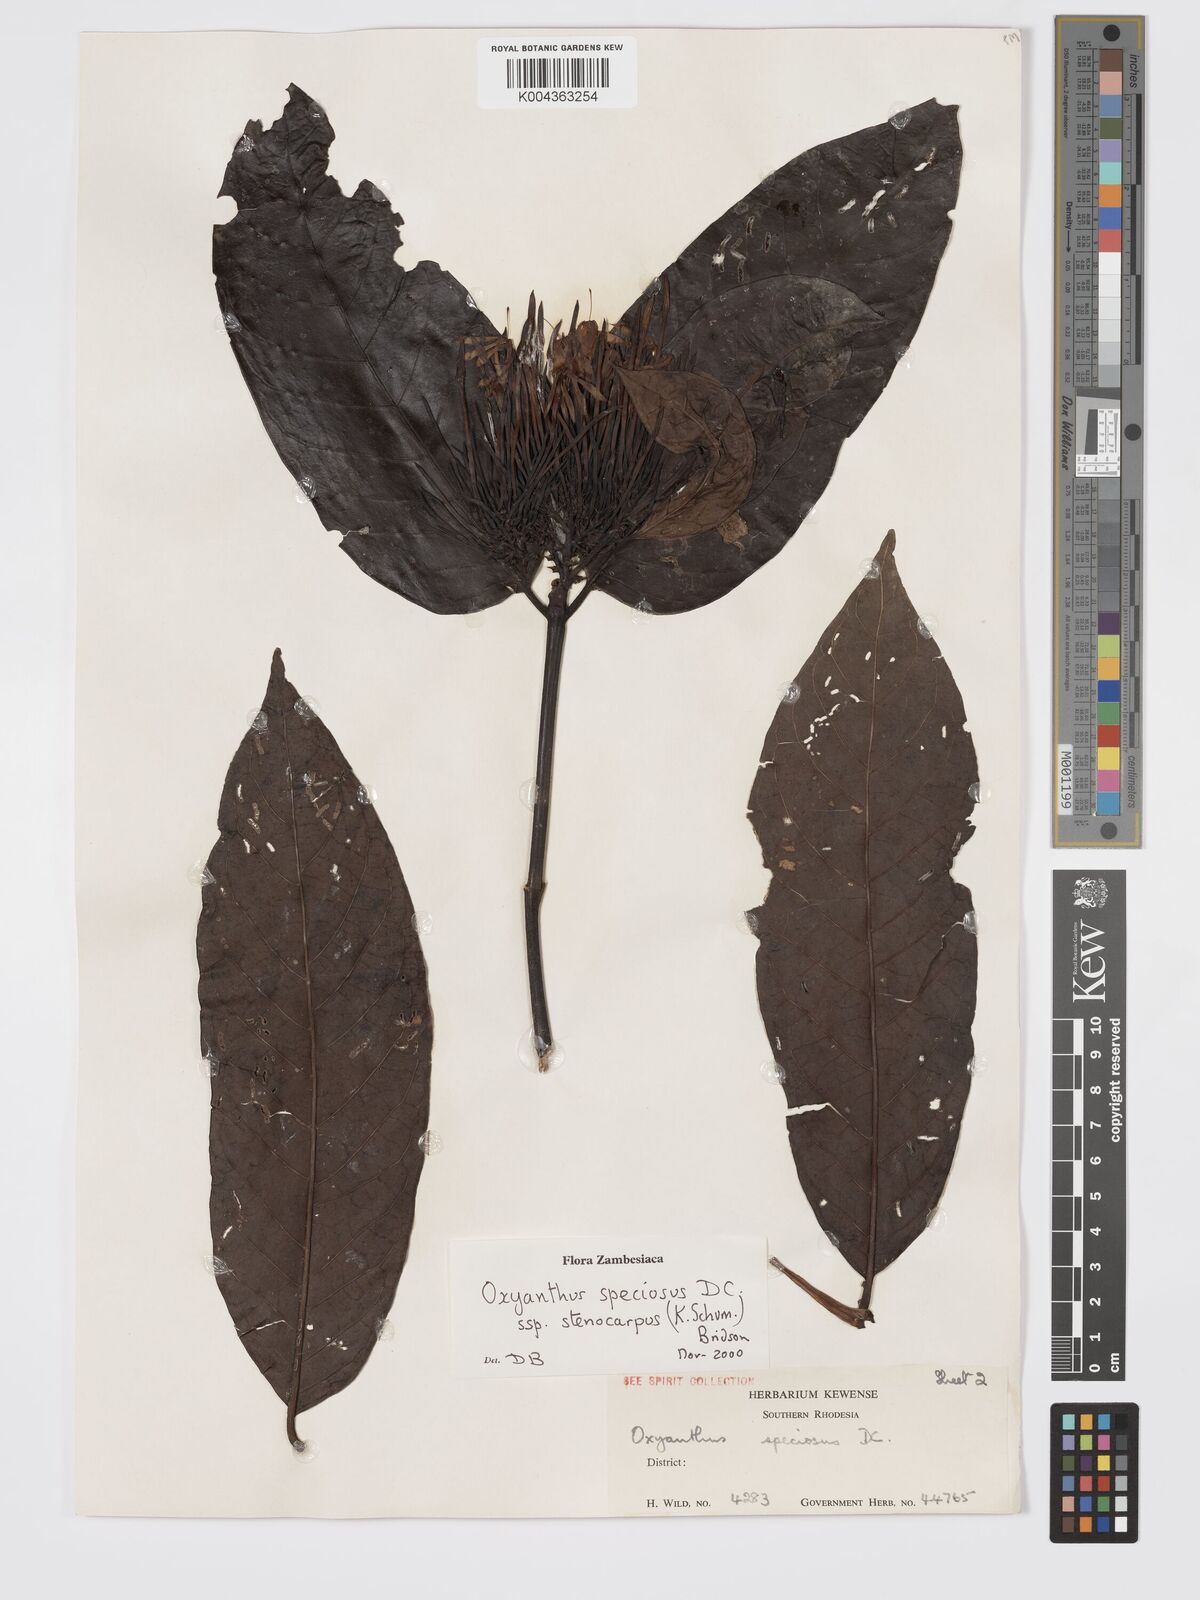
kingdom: Plantae
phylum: Tracheophyta
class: Magnoliopsida
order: Gentianales
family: Rubiaceae
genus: Oxyanthus
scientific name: Oxyanthus speciosus
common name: Whipstick loquat
